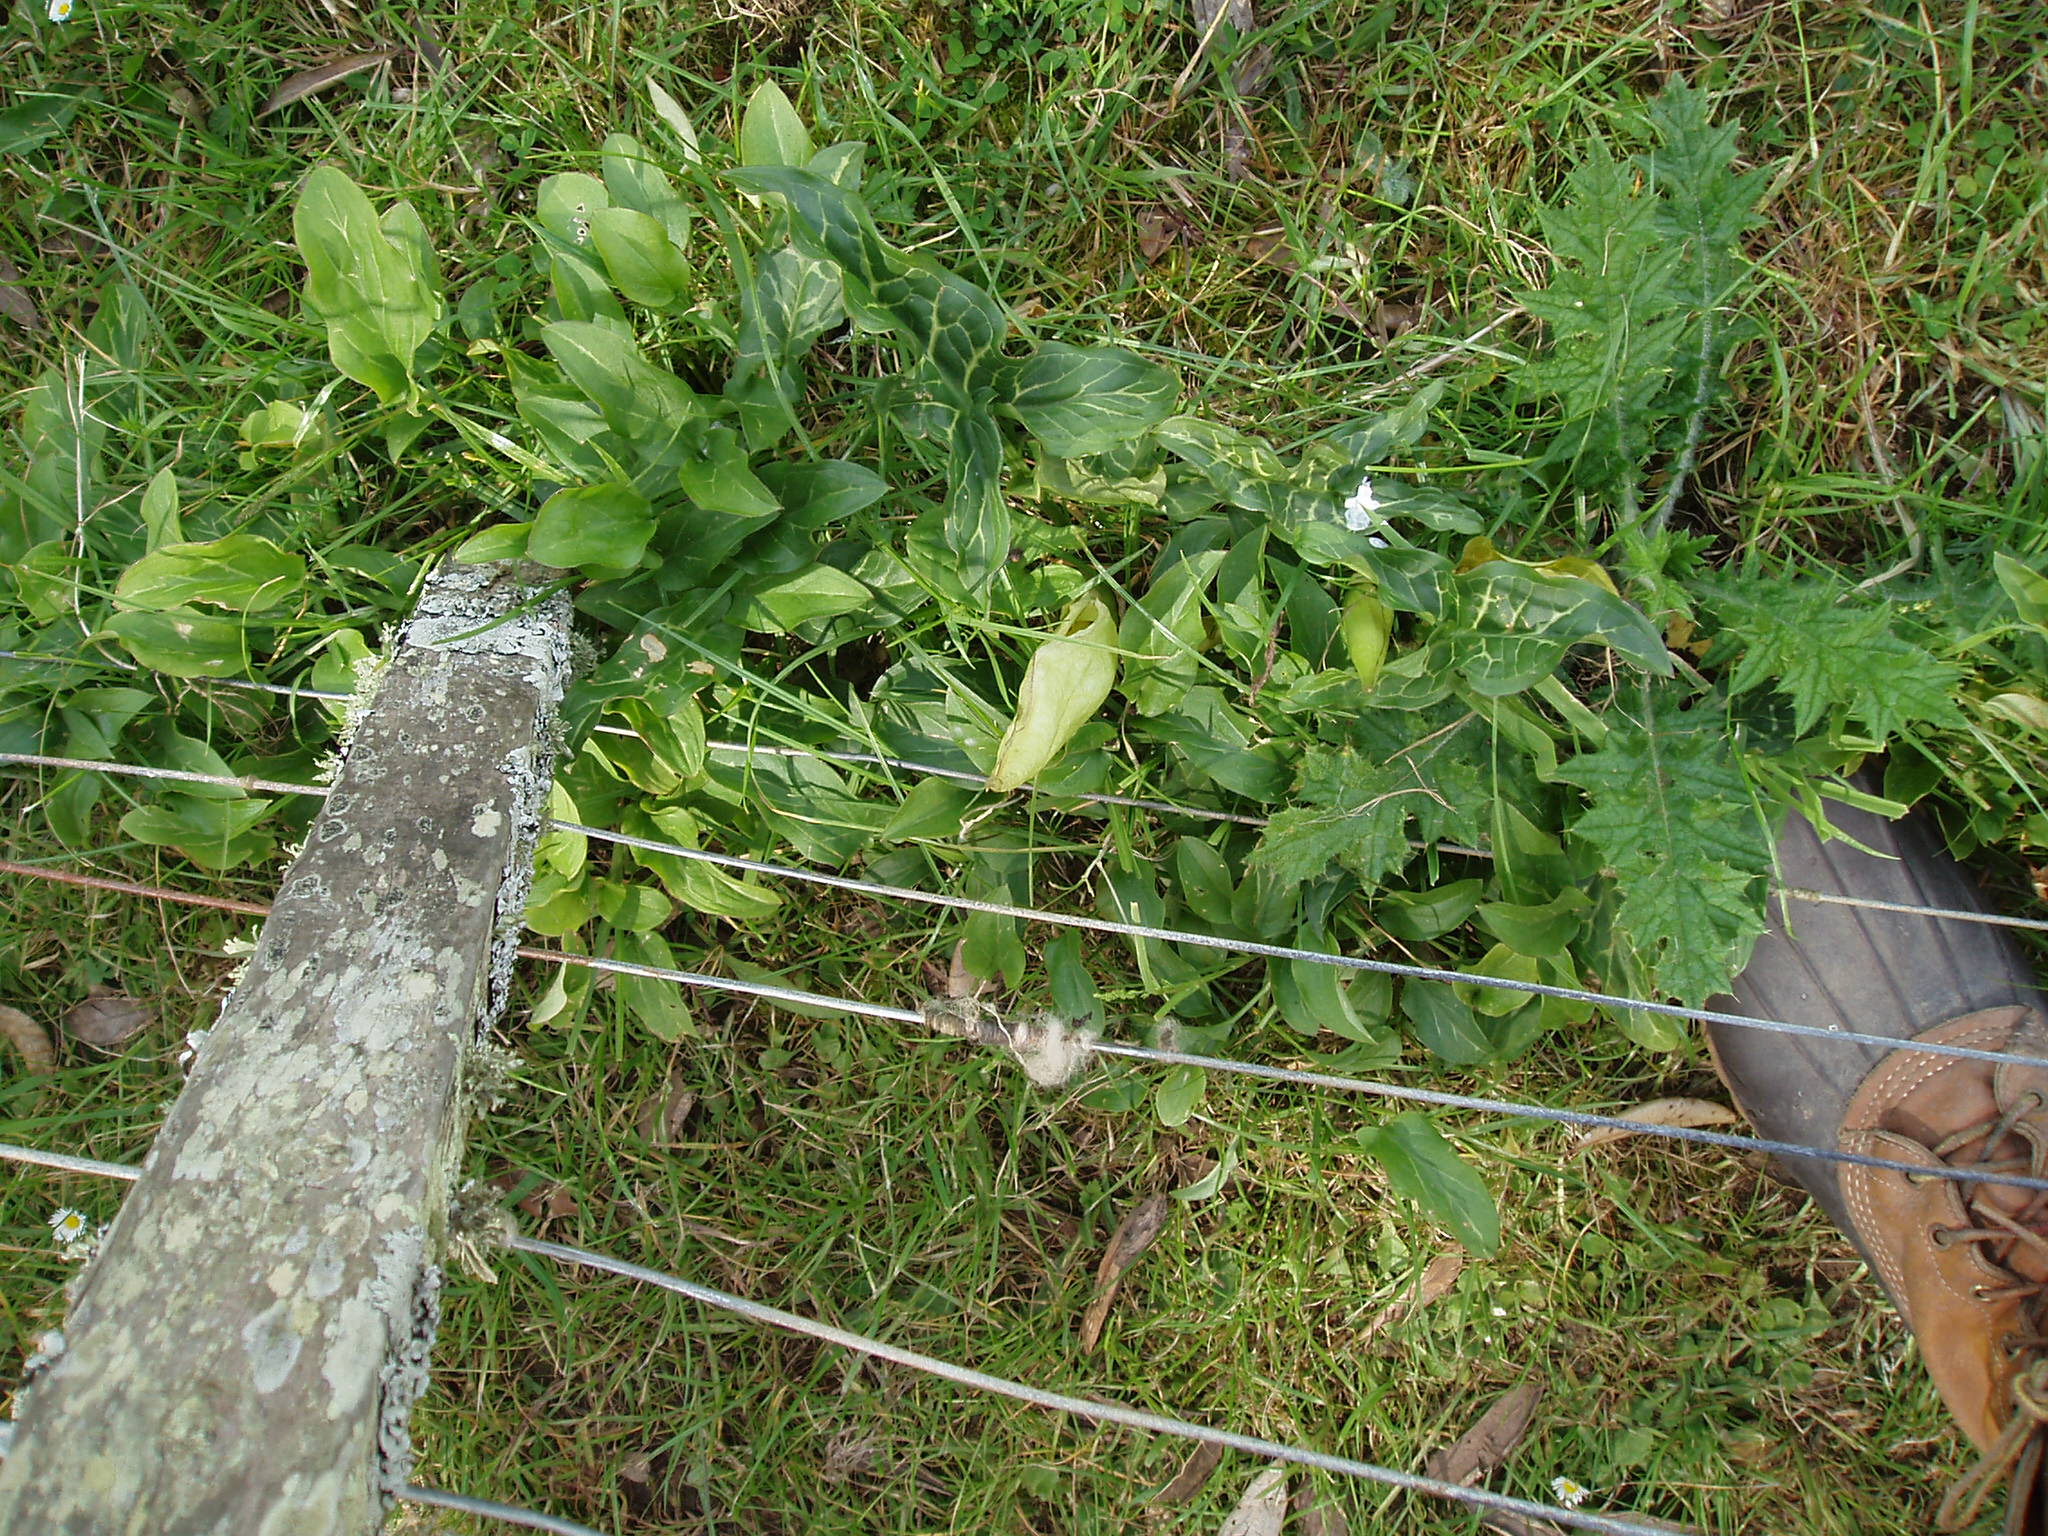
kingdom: Plantae
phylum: Tracheophyta
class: Liliopsida
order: Alismatales
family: Araceae
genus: Arum
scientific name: Arum italicum
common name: Italian lords-and-ladies
